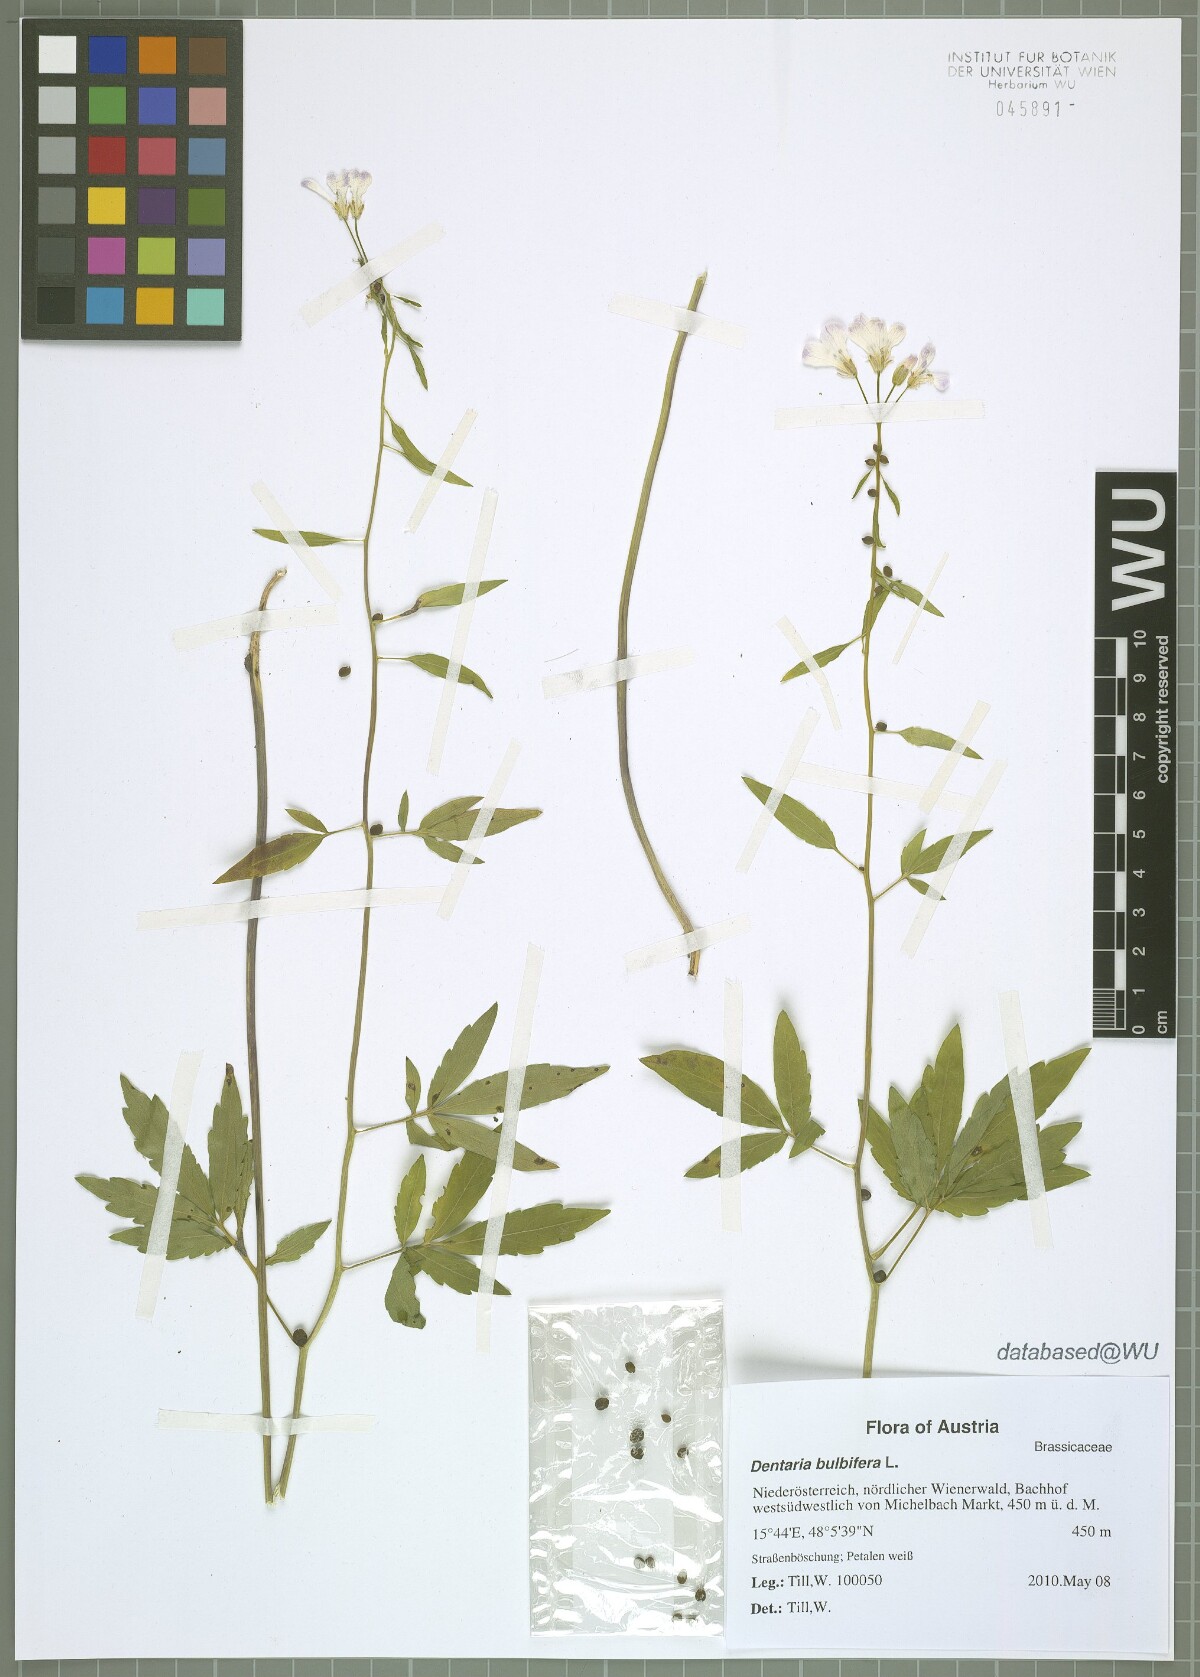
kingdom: Plantae
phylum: Tracheophyta
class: Magnoliopsida
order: Brassicales
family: Brassicaceae
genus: Cardamine
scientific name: Cardamine bulbifera
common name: Coralroot bittercress
